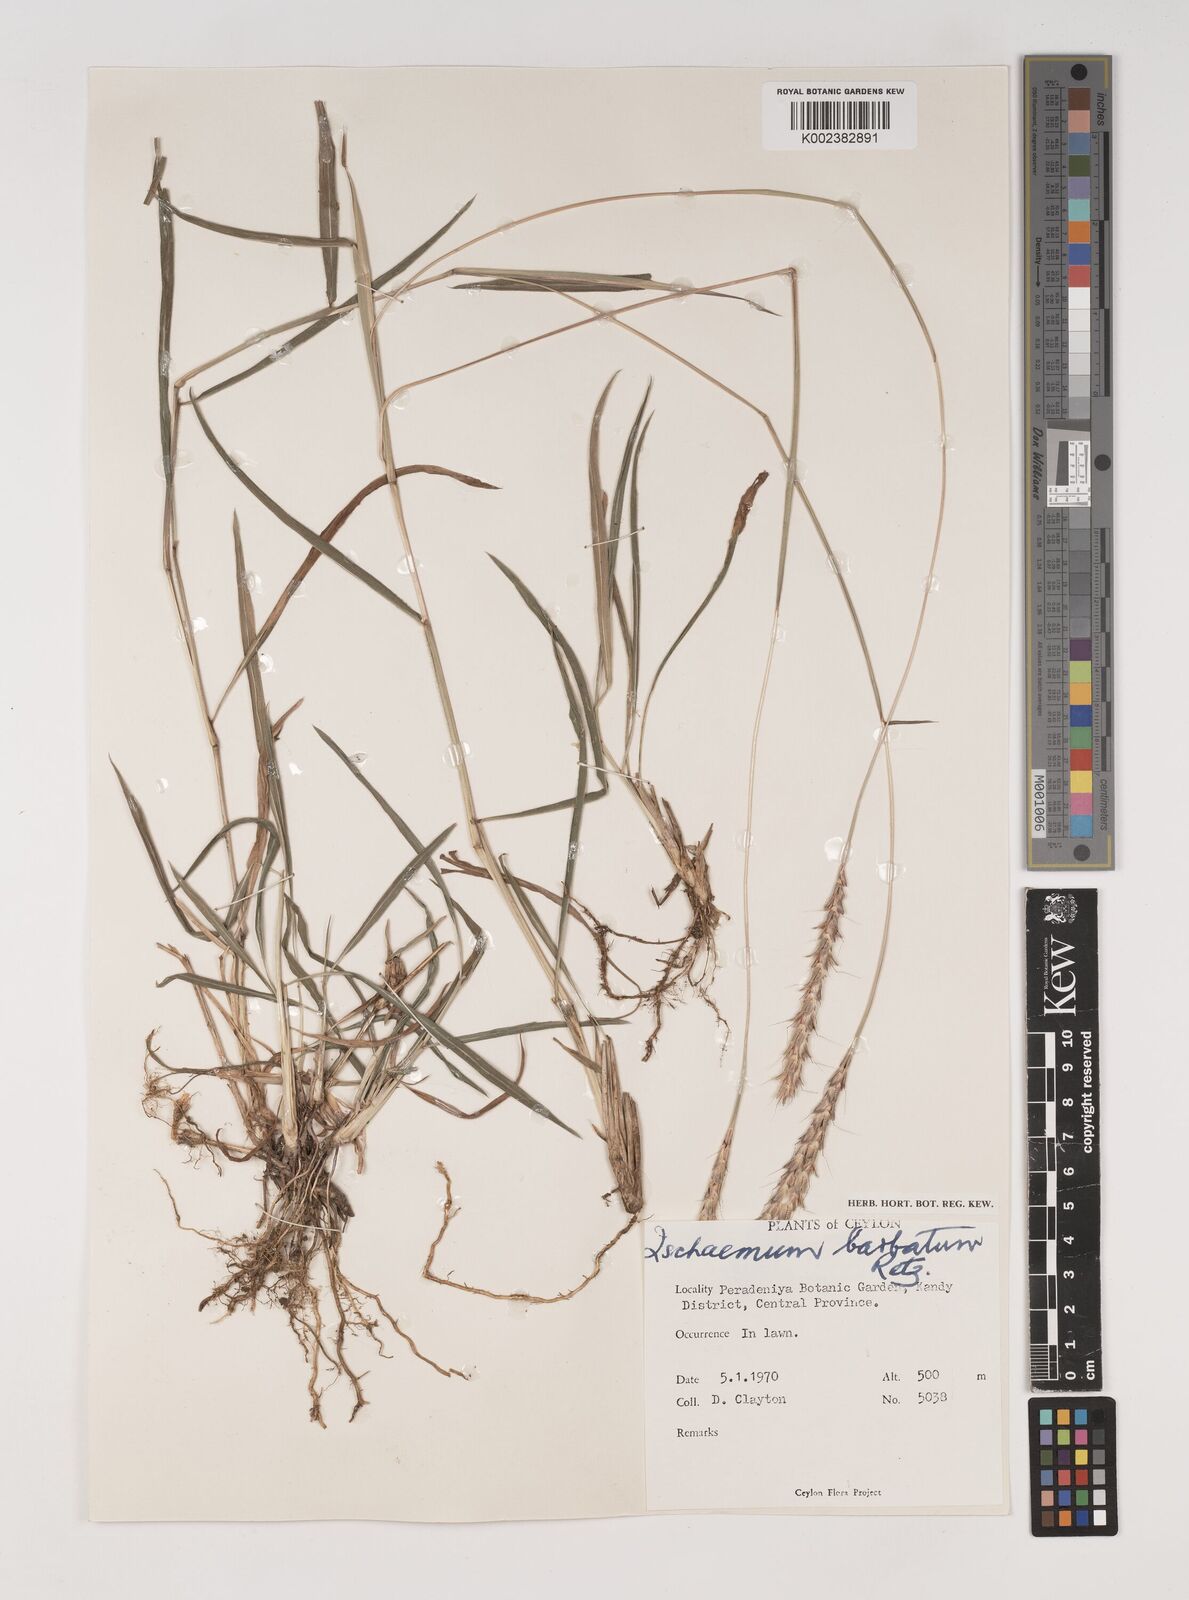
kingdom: Plantae
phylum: Tracheophyta
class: Liliopsida
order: Poales
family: Poaceae
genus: Ischaemum
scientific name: Ischaemum
